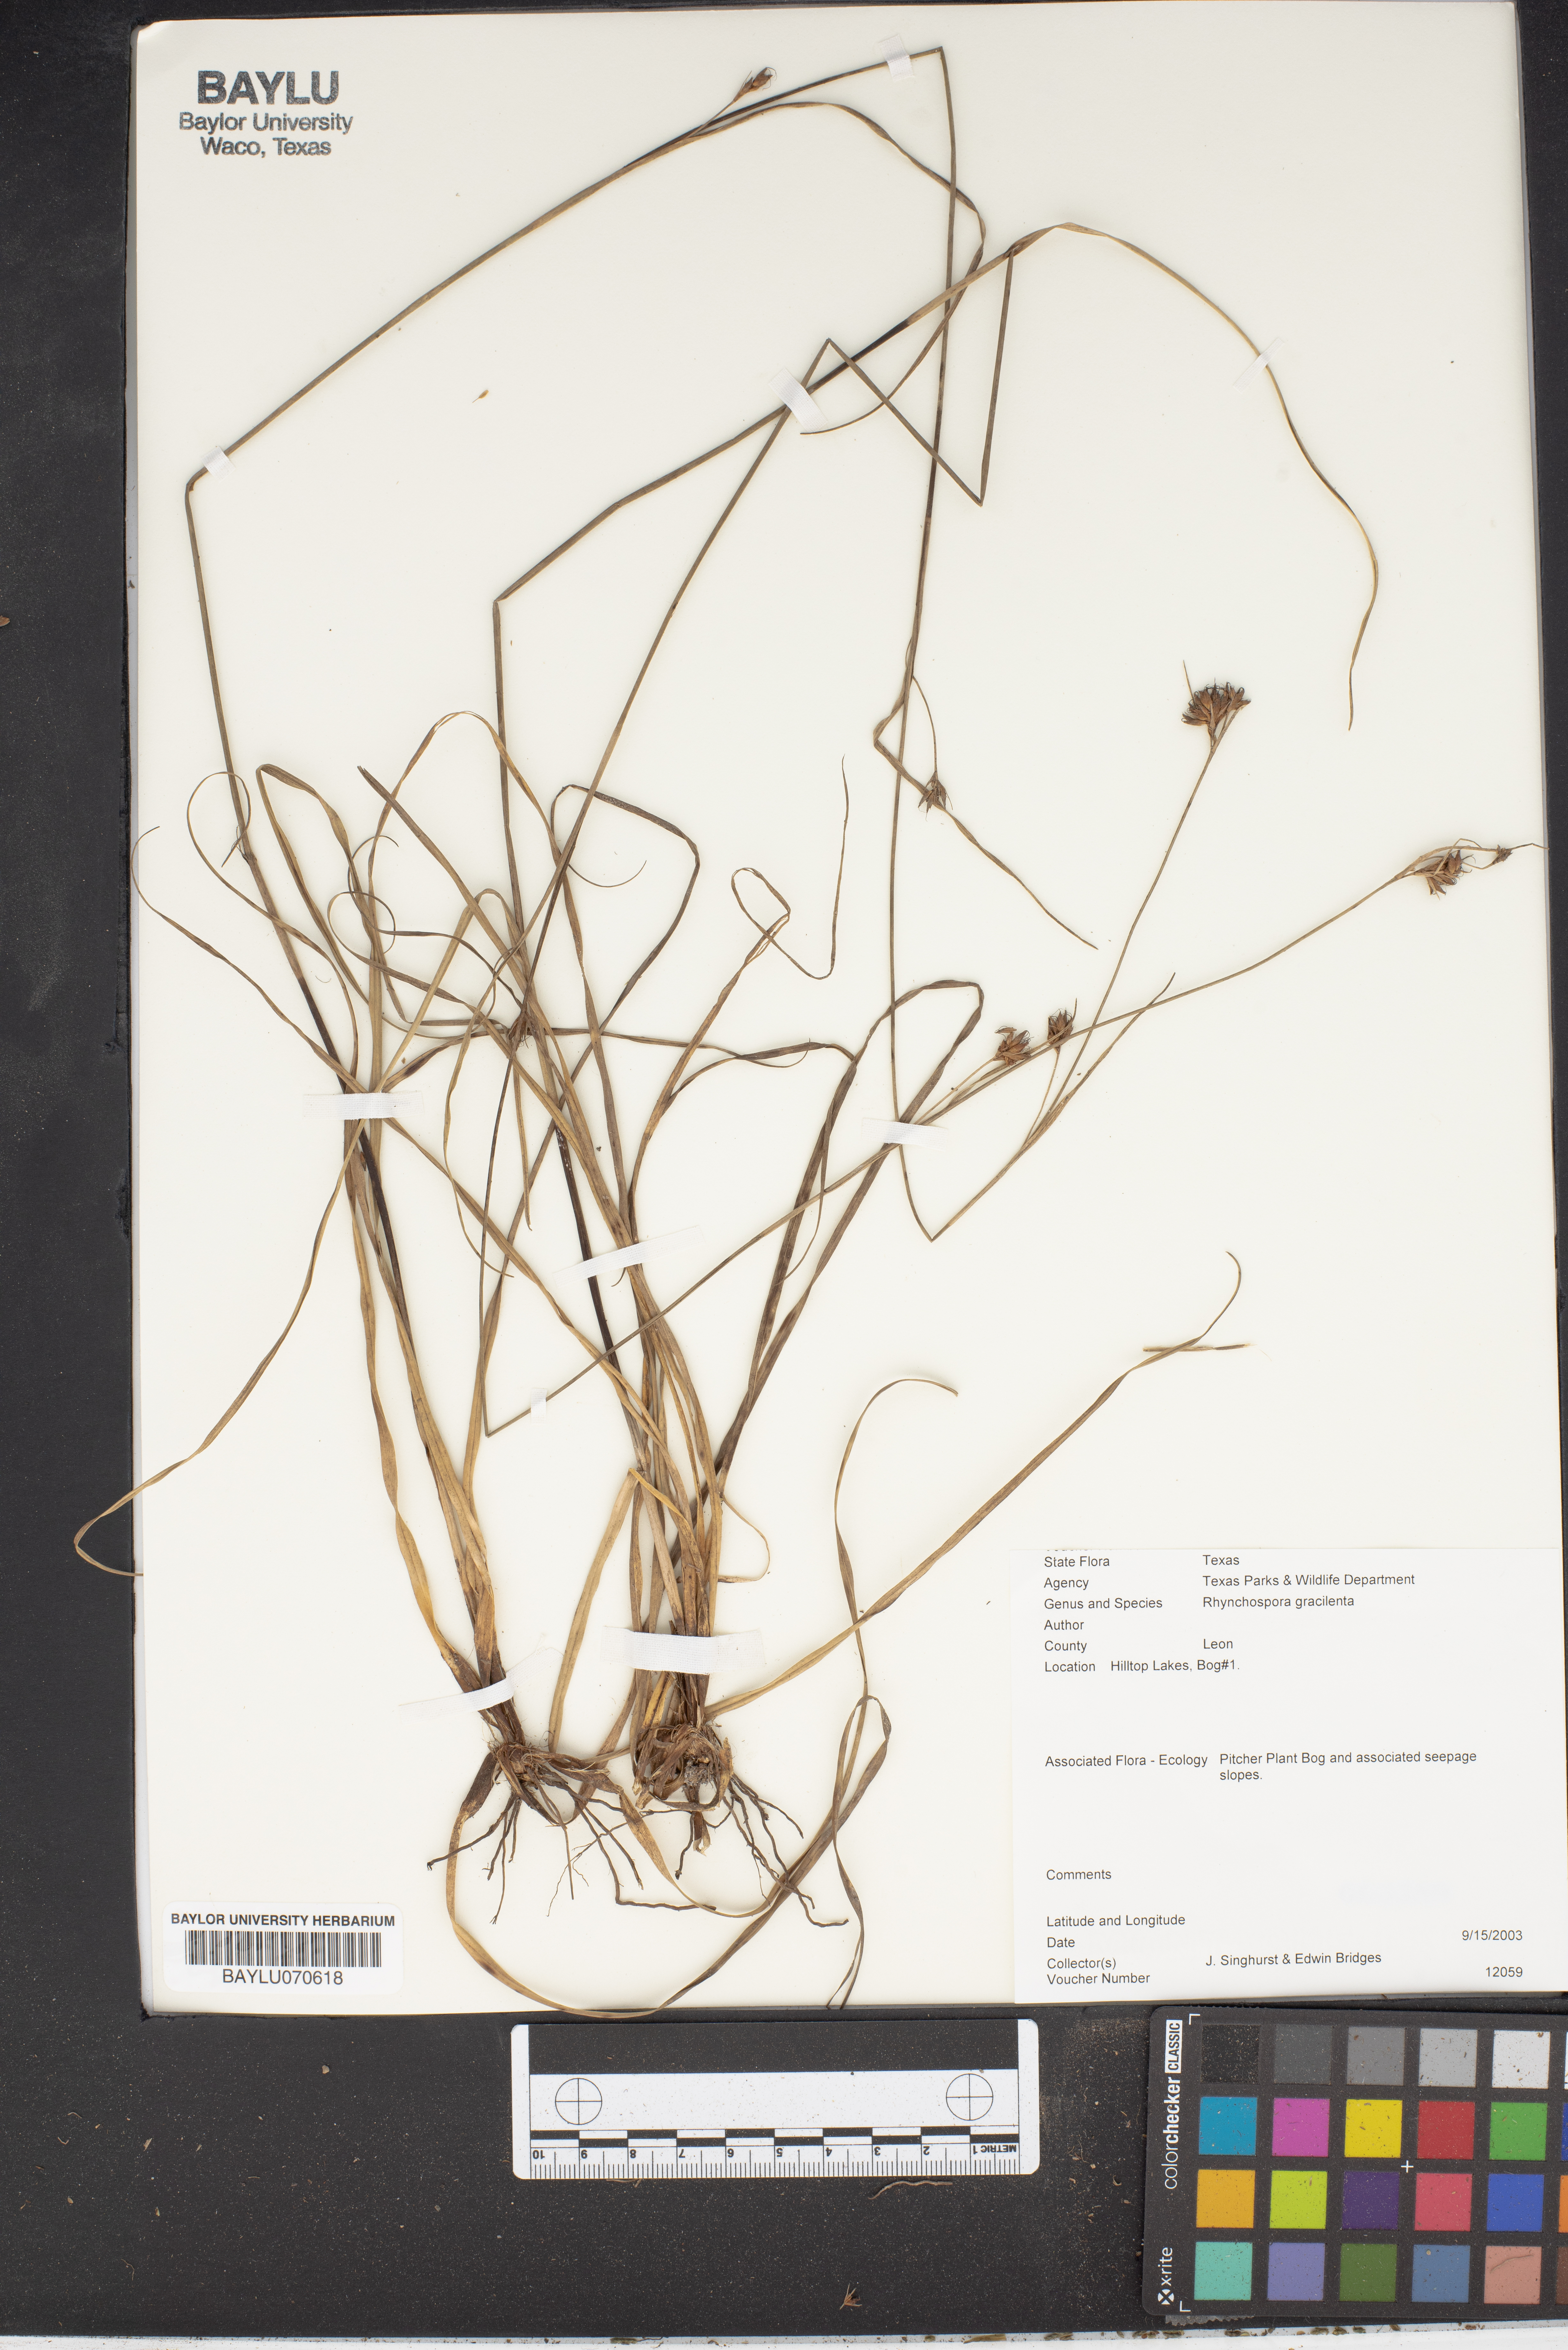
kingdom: Plantae
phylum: Tracheophyta
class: Liliopsida
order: Poales
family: Cyperaceae
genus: Rhynchospora
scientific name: Rhynchospora gracilenta
